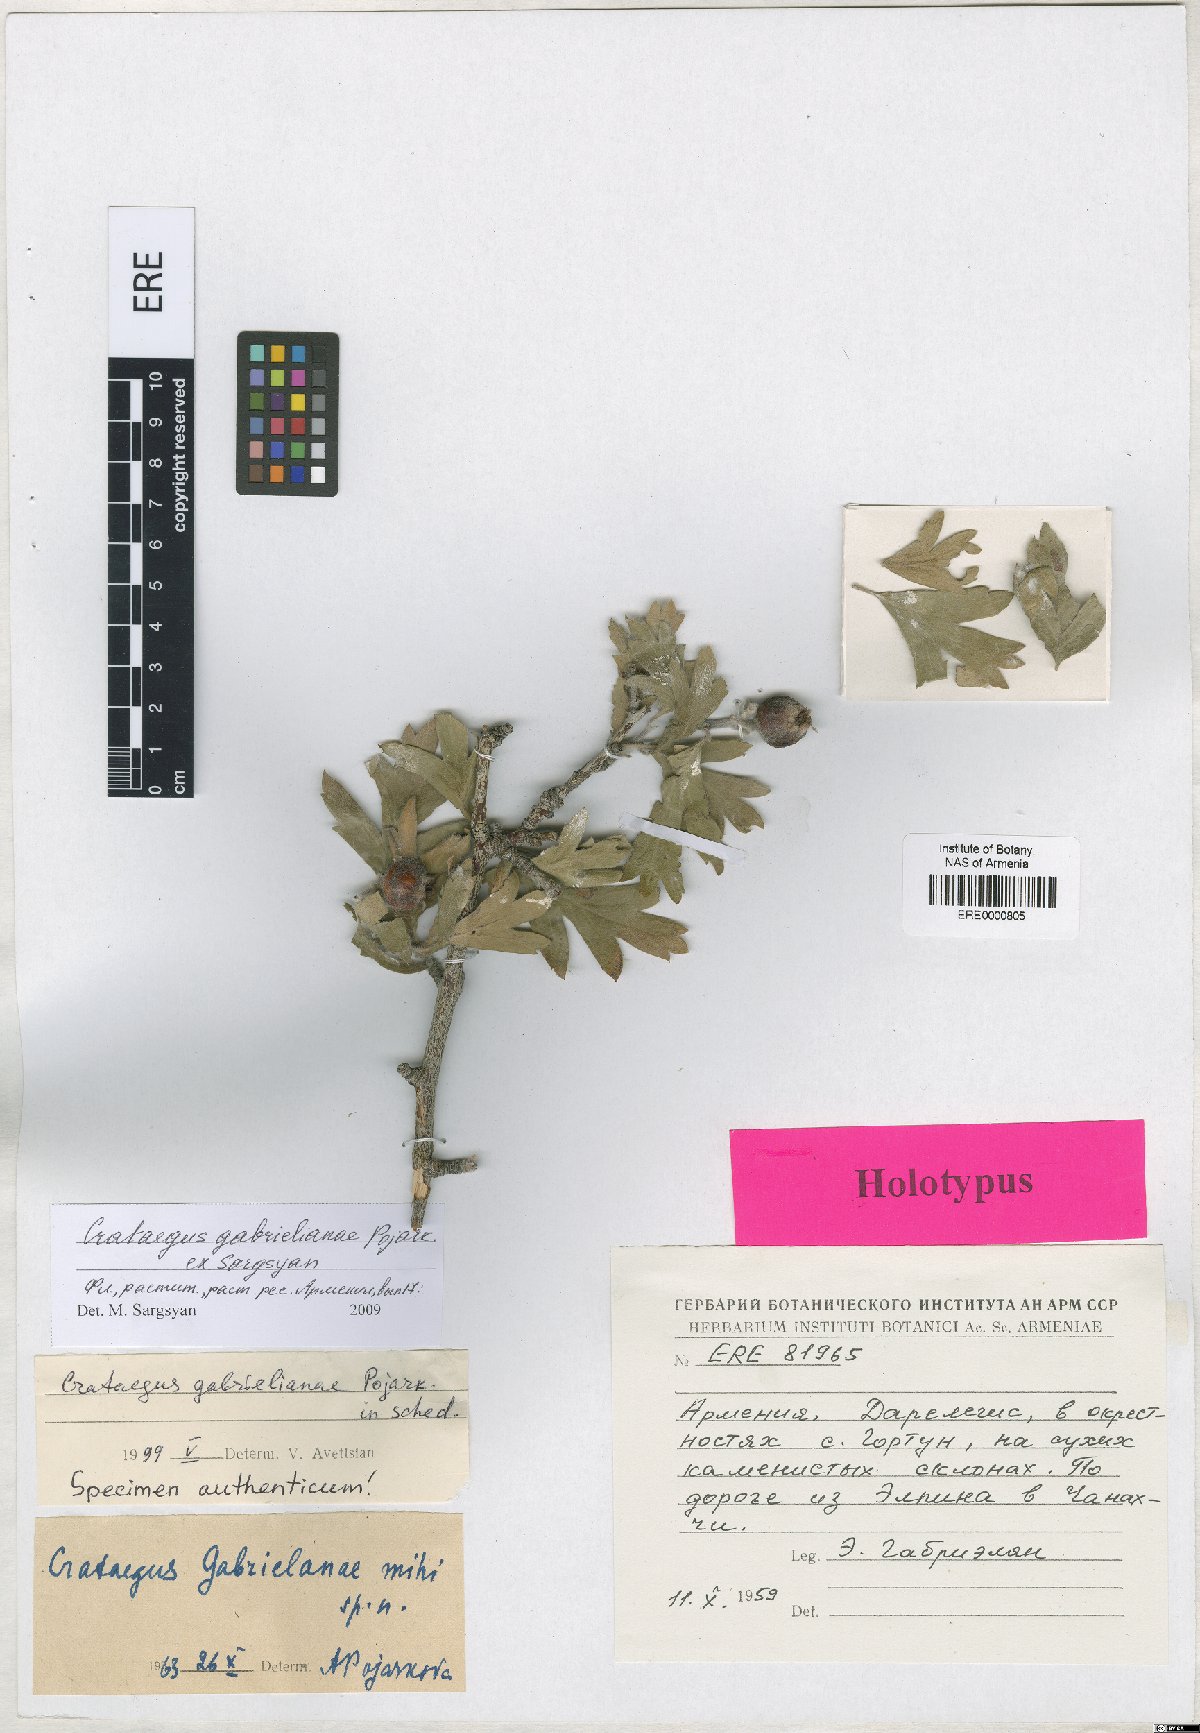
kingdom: Plantae
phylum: Tracheophyta
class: Magnoliopsida
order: Rosales
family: Rosaceae
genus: Crataegus
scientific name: Crataegus
